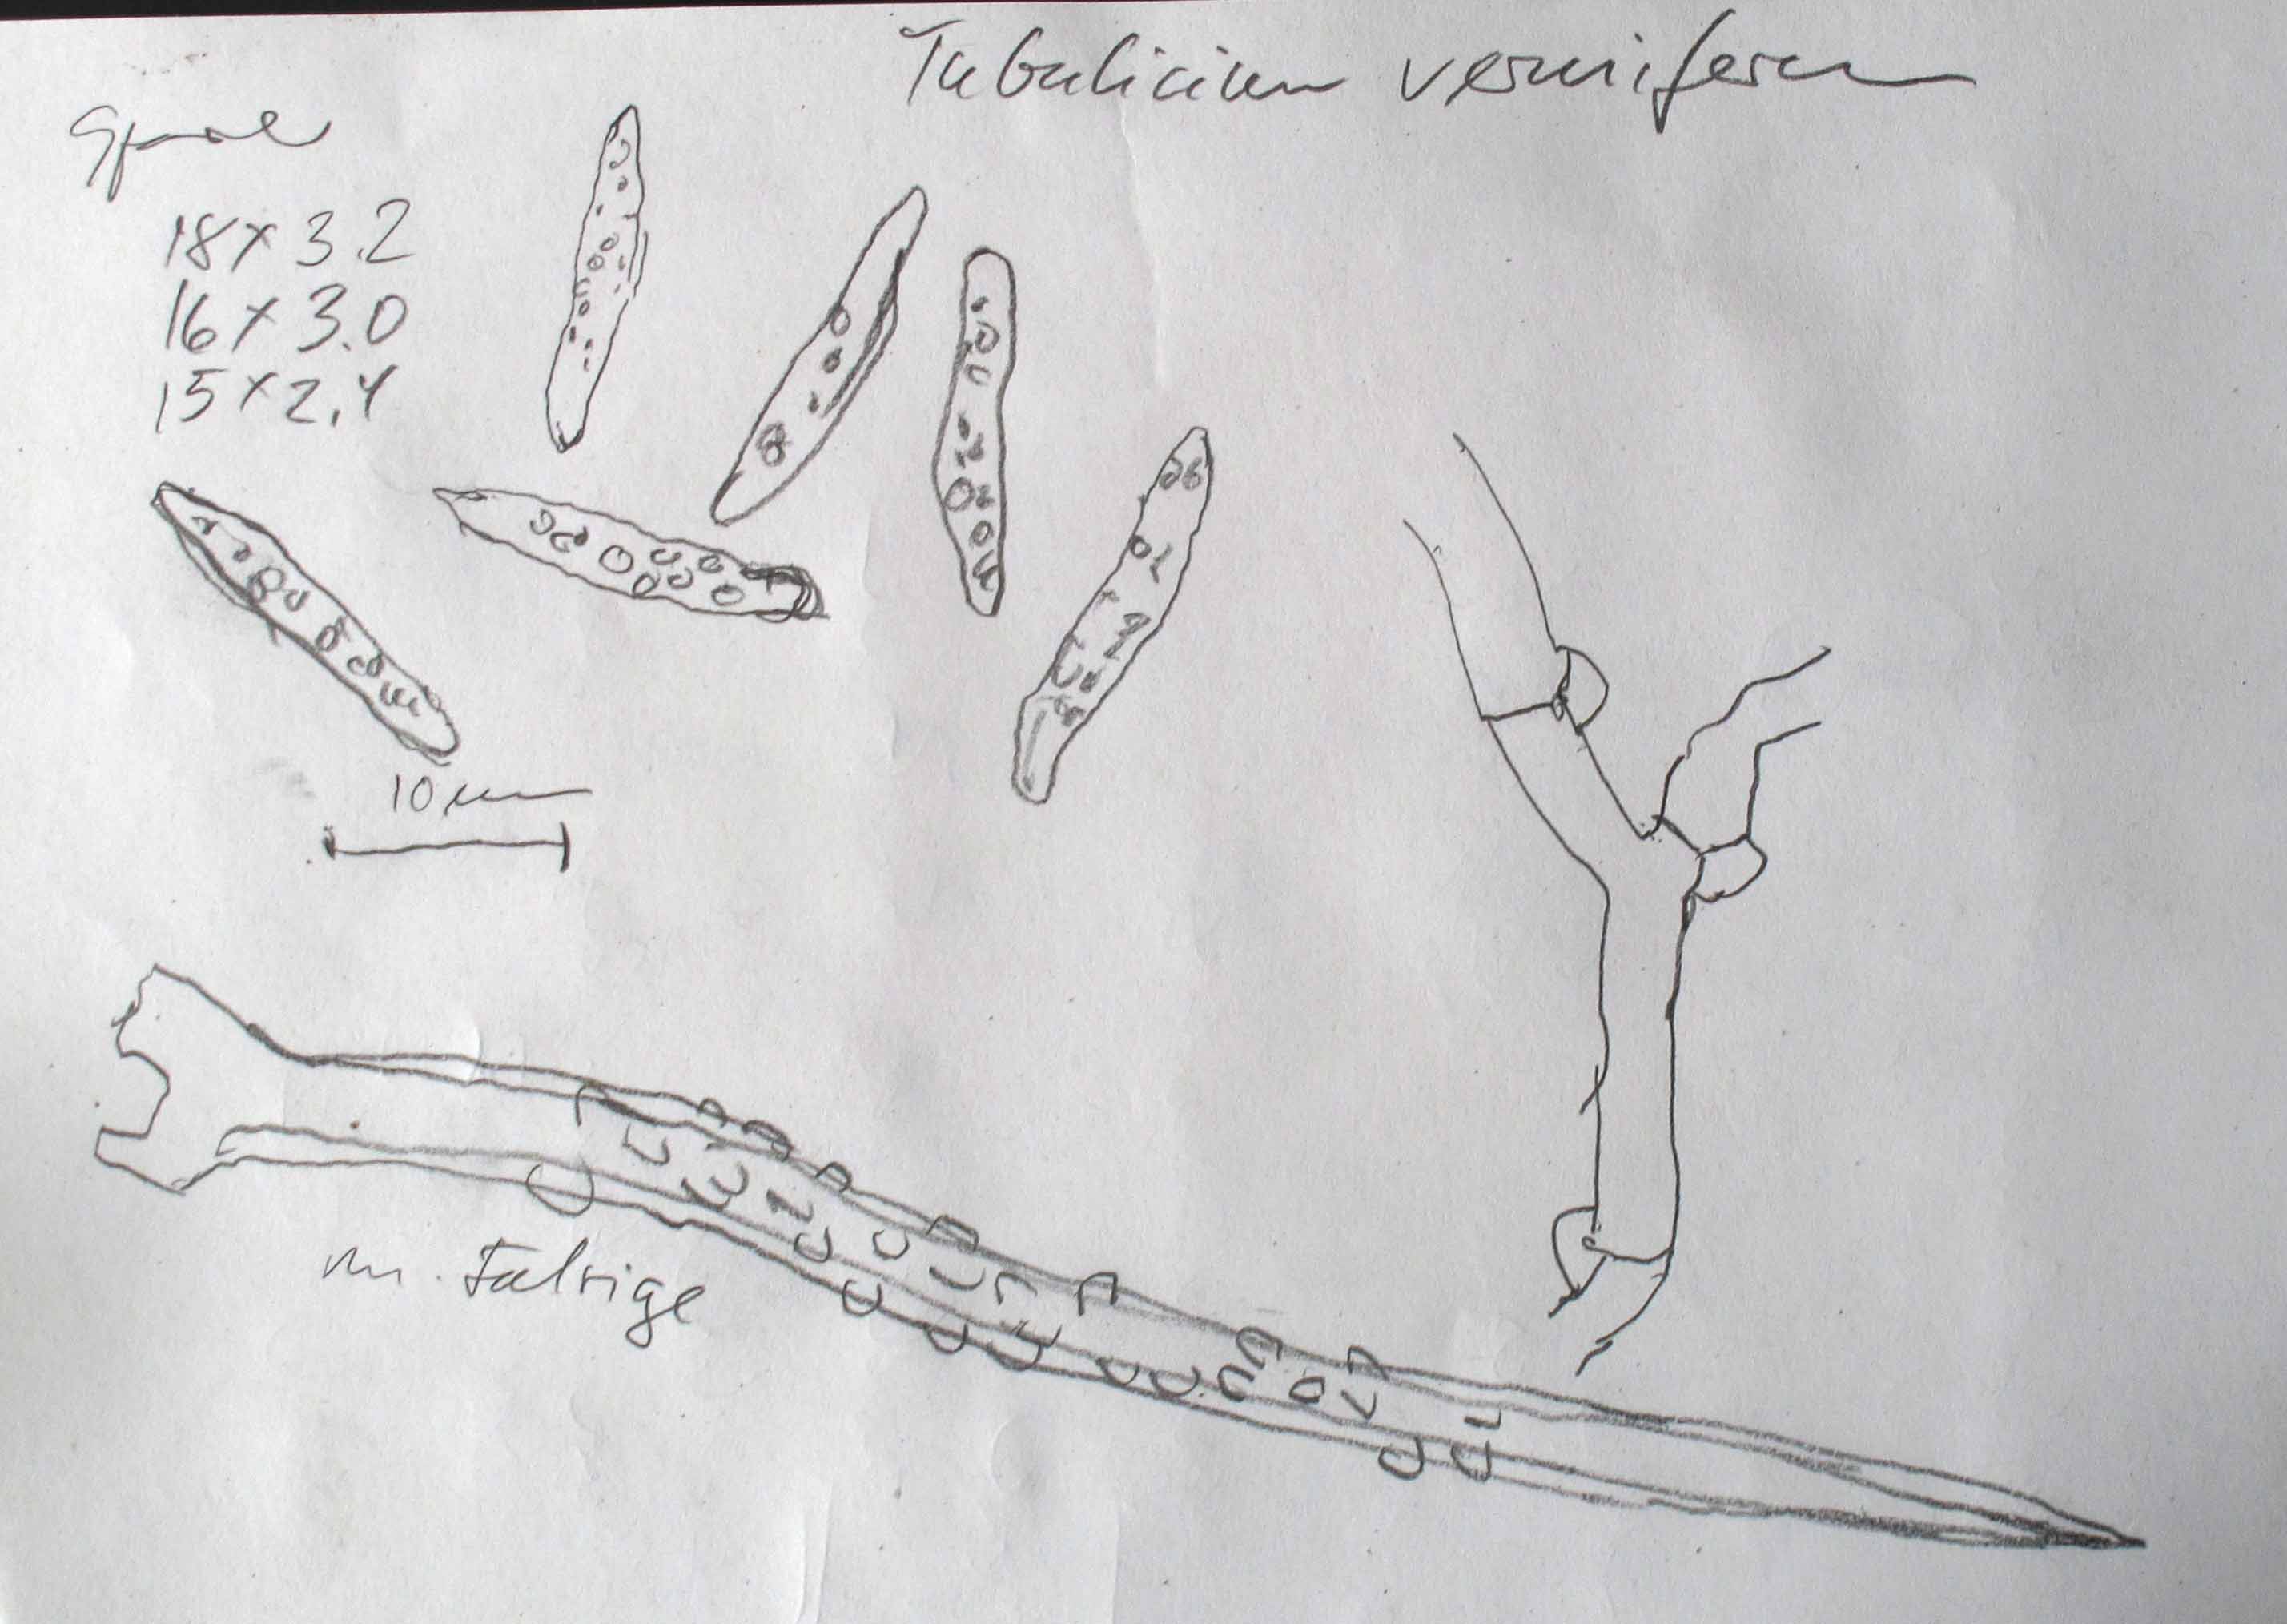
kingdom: Fungi
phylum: Basidiomycota
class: Agaricomycetes
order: Trechisporales
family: Hydnodontaceae
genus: Subulicystidium
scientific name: Subulicystidium longisporum
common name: almindelig pigtrådshinde
